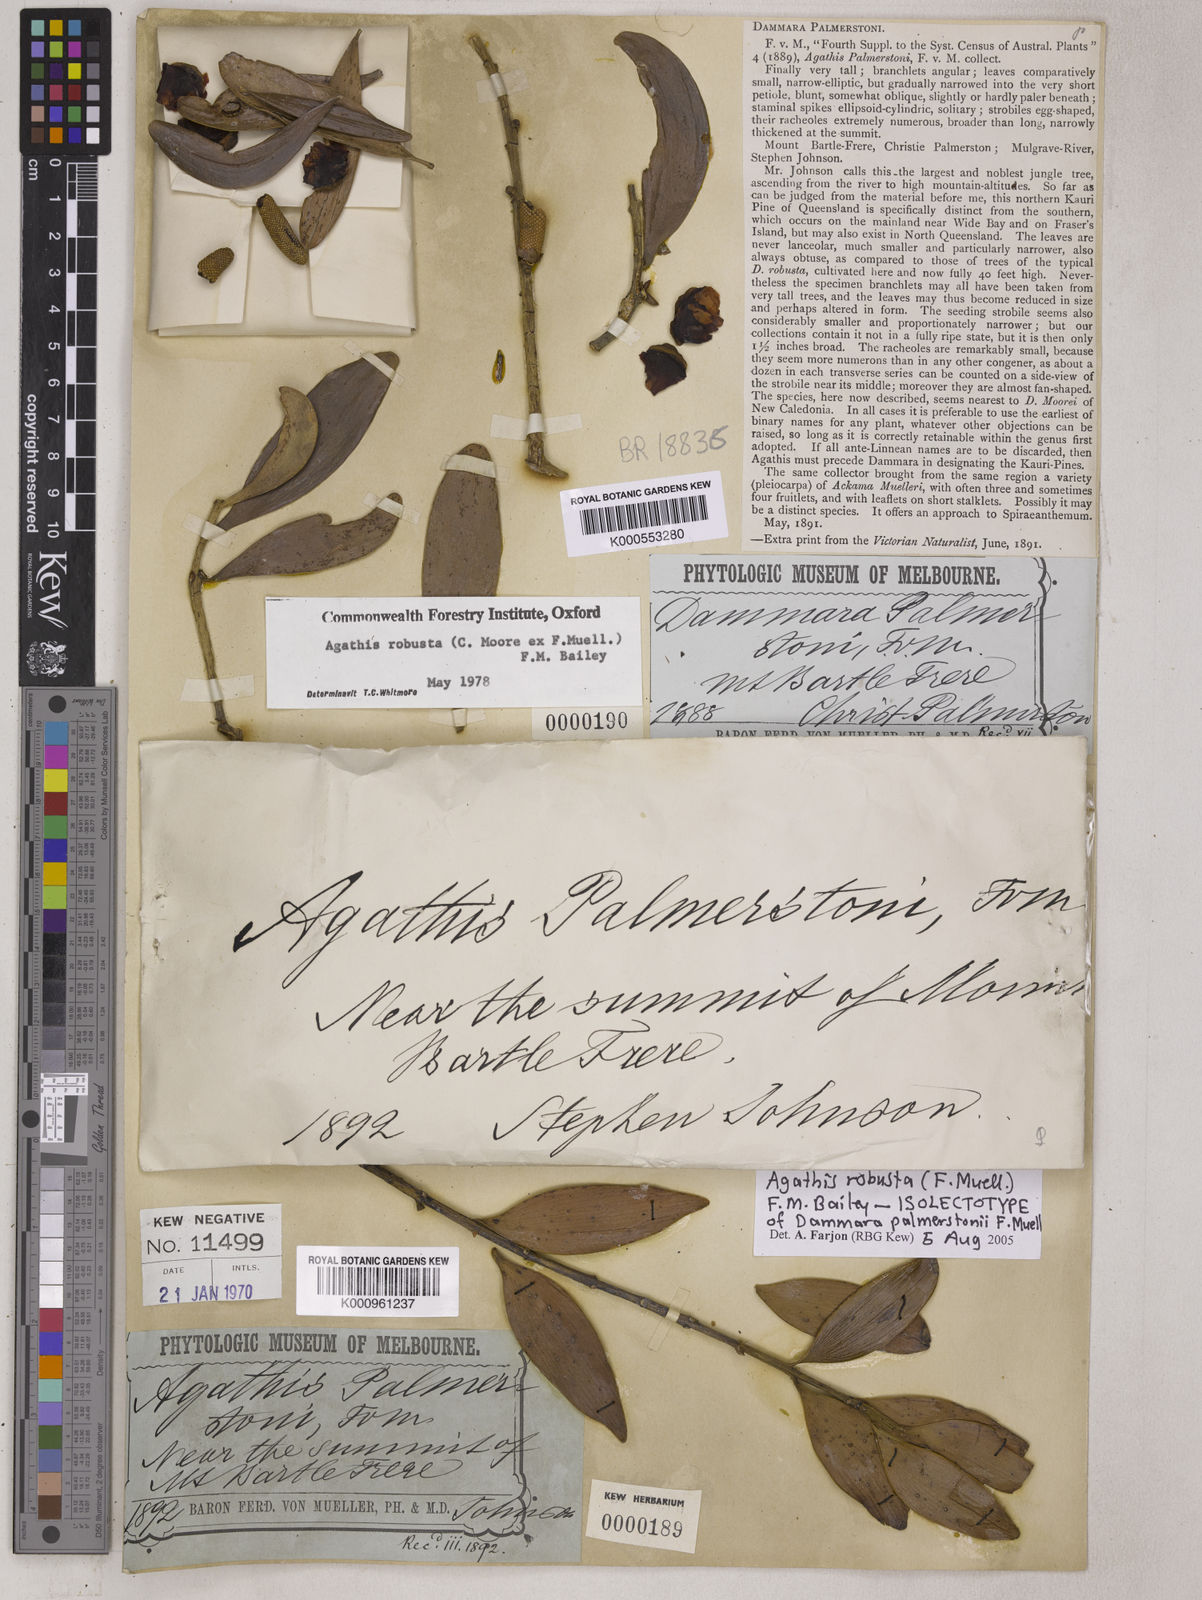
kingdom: Plantae
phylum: Tracheophyta
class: Pinopsida
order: Pinales
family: Araucariaceae
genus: Agathis
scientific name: Agathis robusta
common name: Australian-kauri
